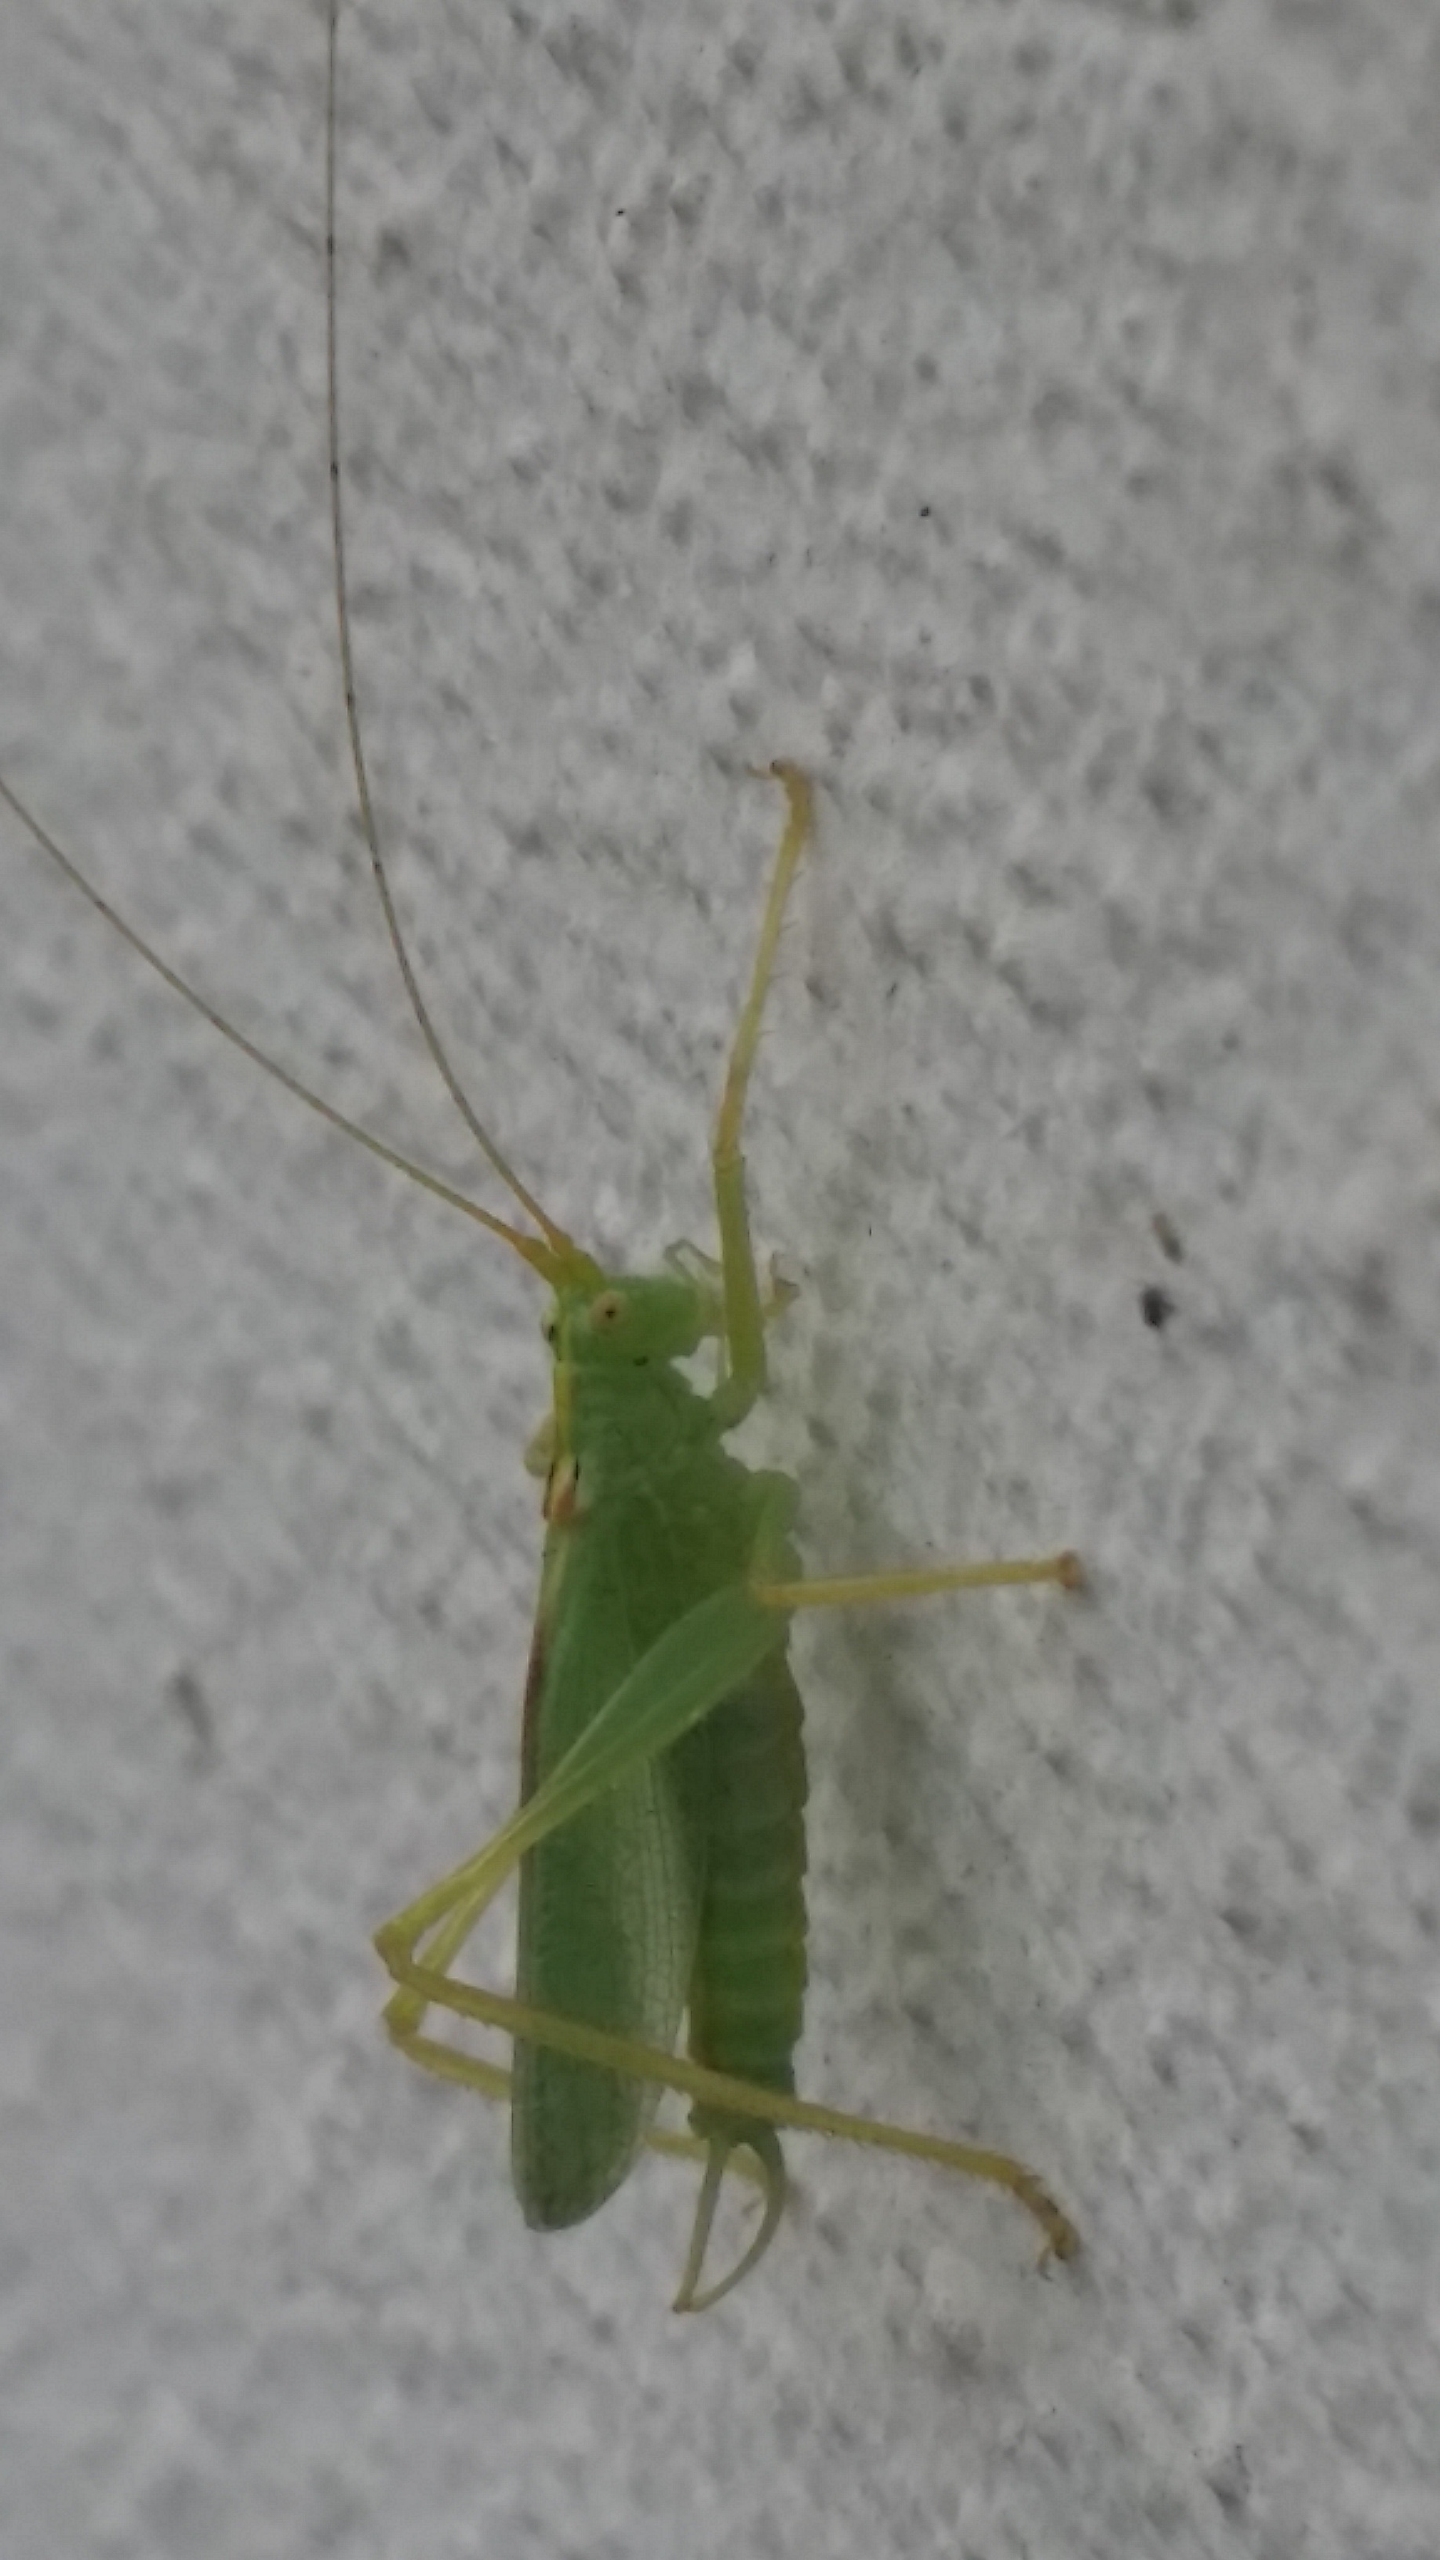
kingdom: Animalia
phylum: Arthropoda
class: Insecta
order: Orthoptera
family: Tettigoniidae
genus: Meconema
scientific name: Meconema thalassinum
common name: Egegræshoppe
